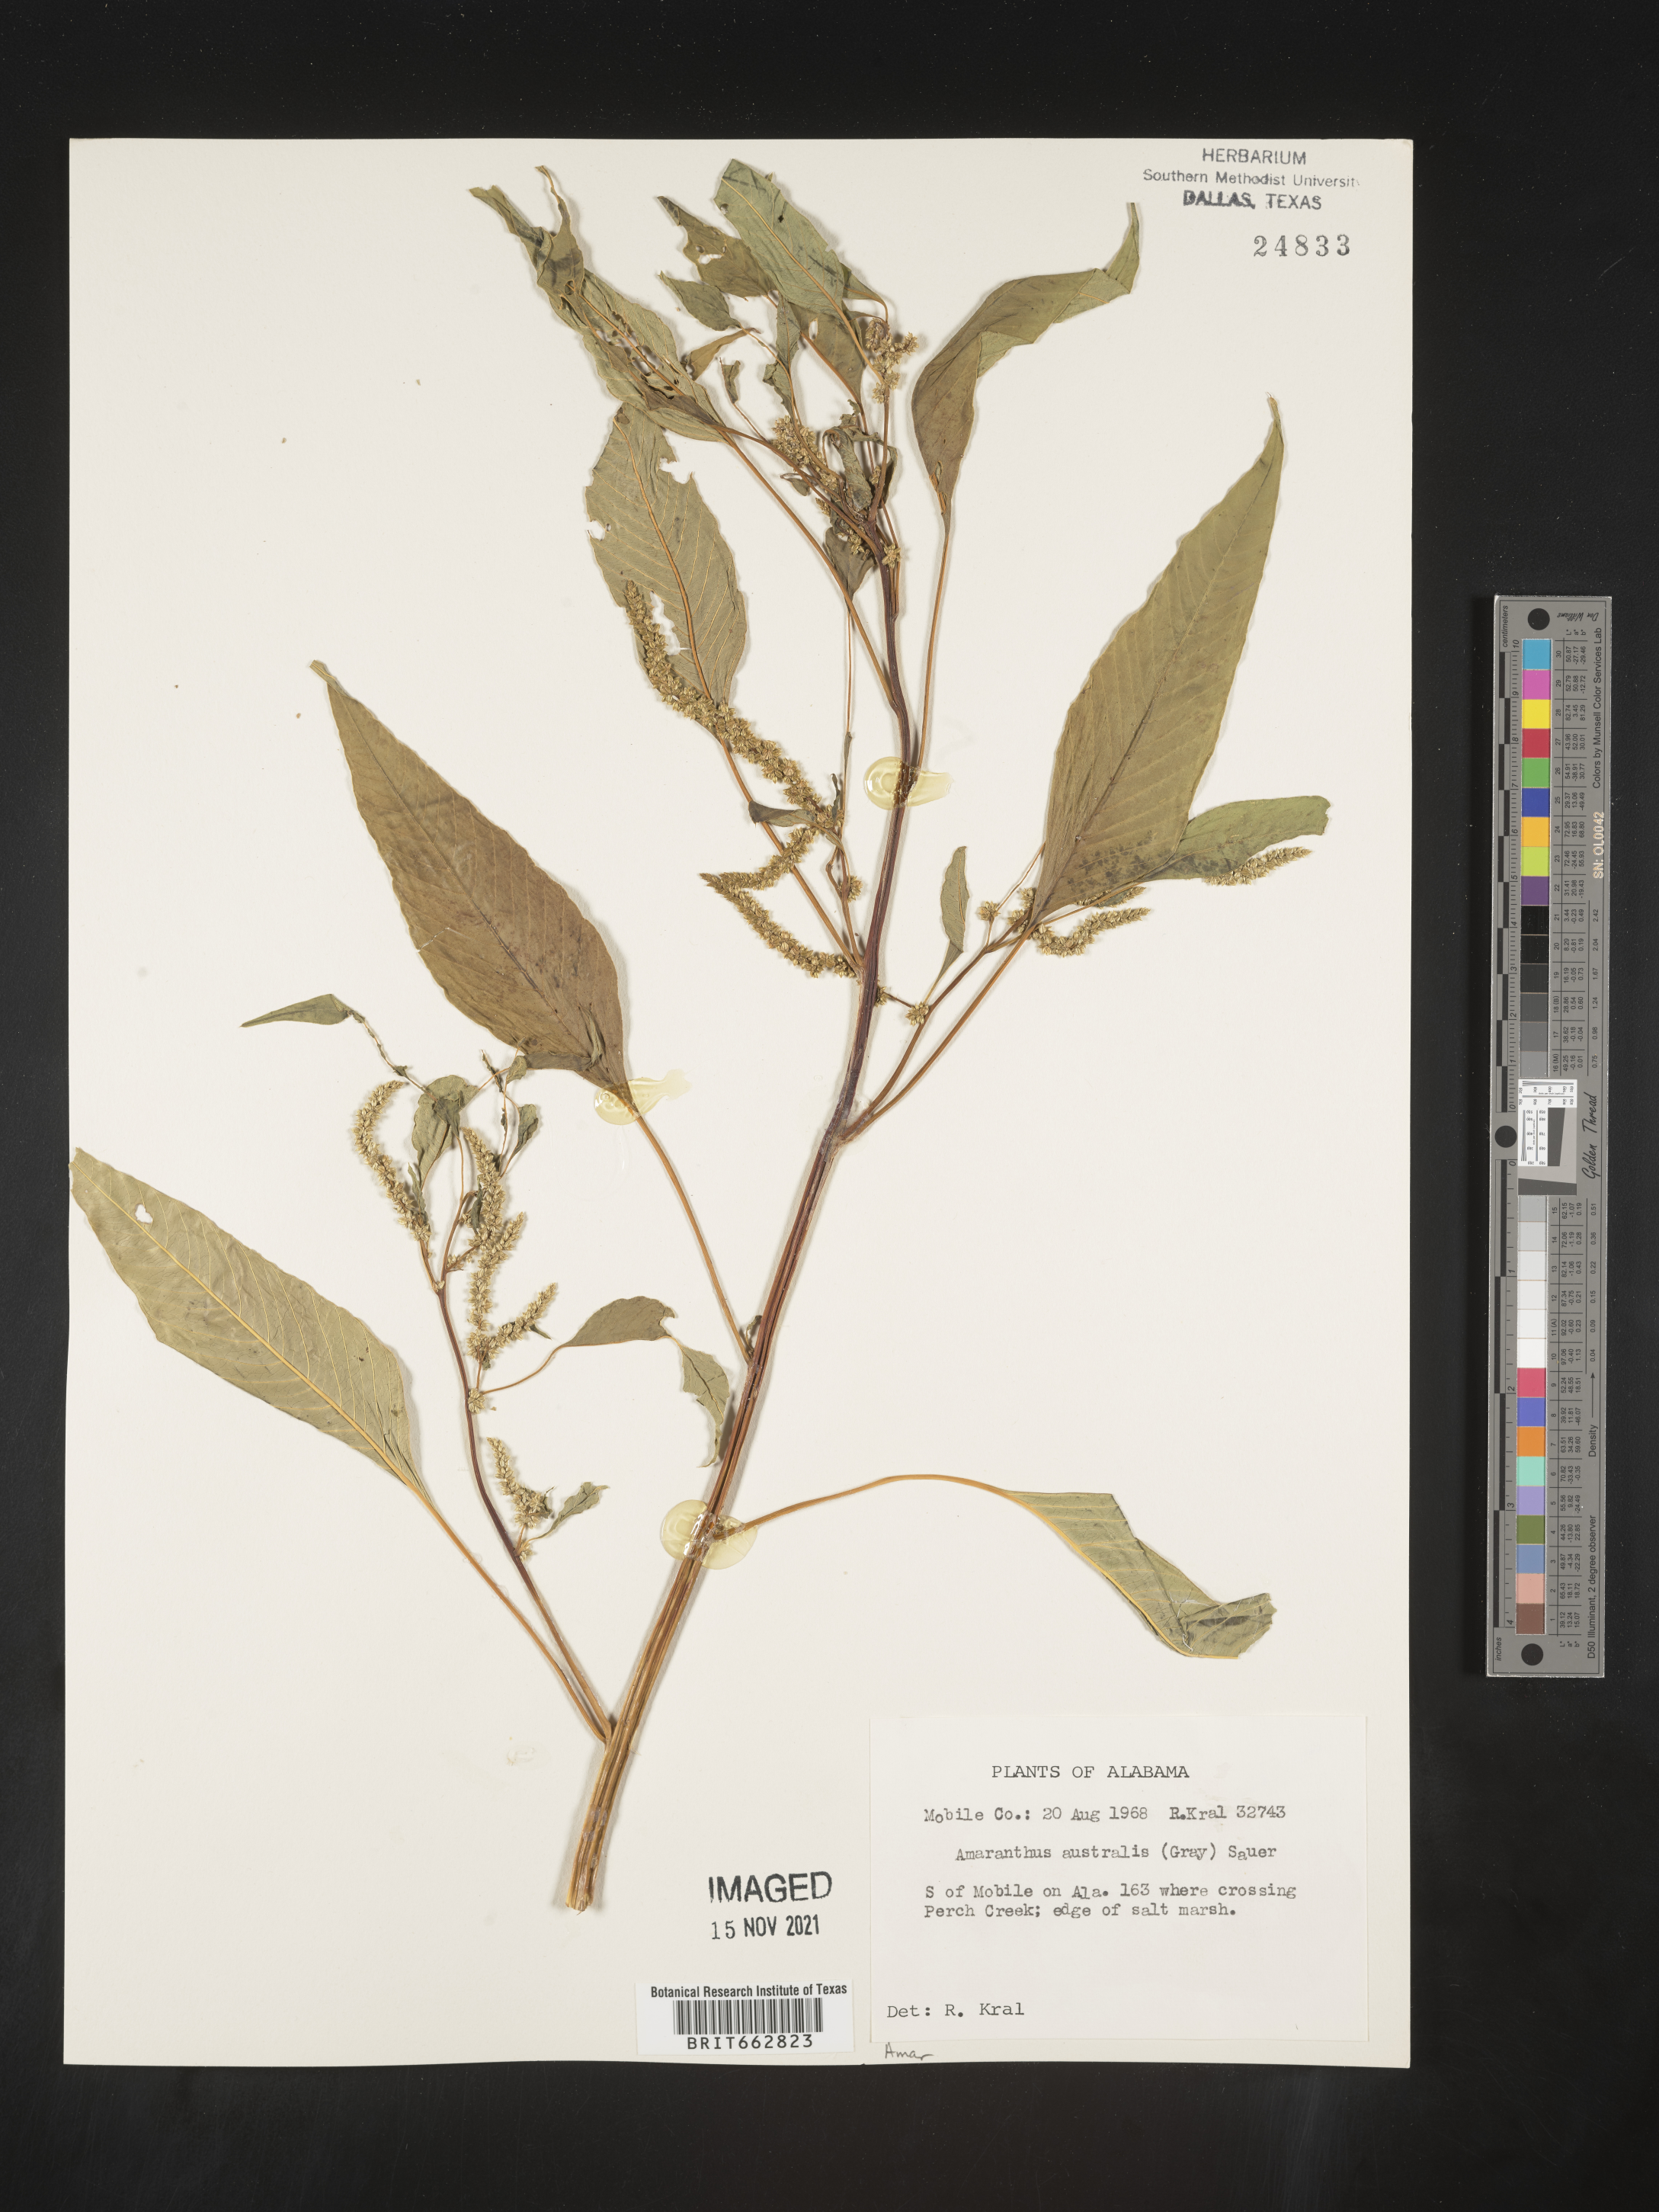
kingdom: Plantae
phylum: Tracheophyta
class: Magnoliopsida
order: Caryophyllales
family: Amaranthaceae
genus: Amaranthus
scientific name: Amaranthus australis
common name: Southern amaranth
